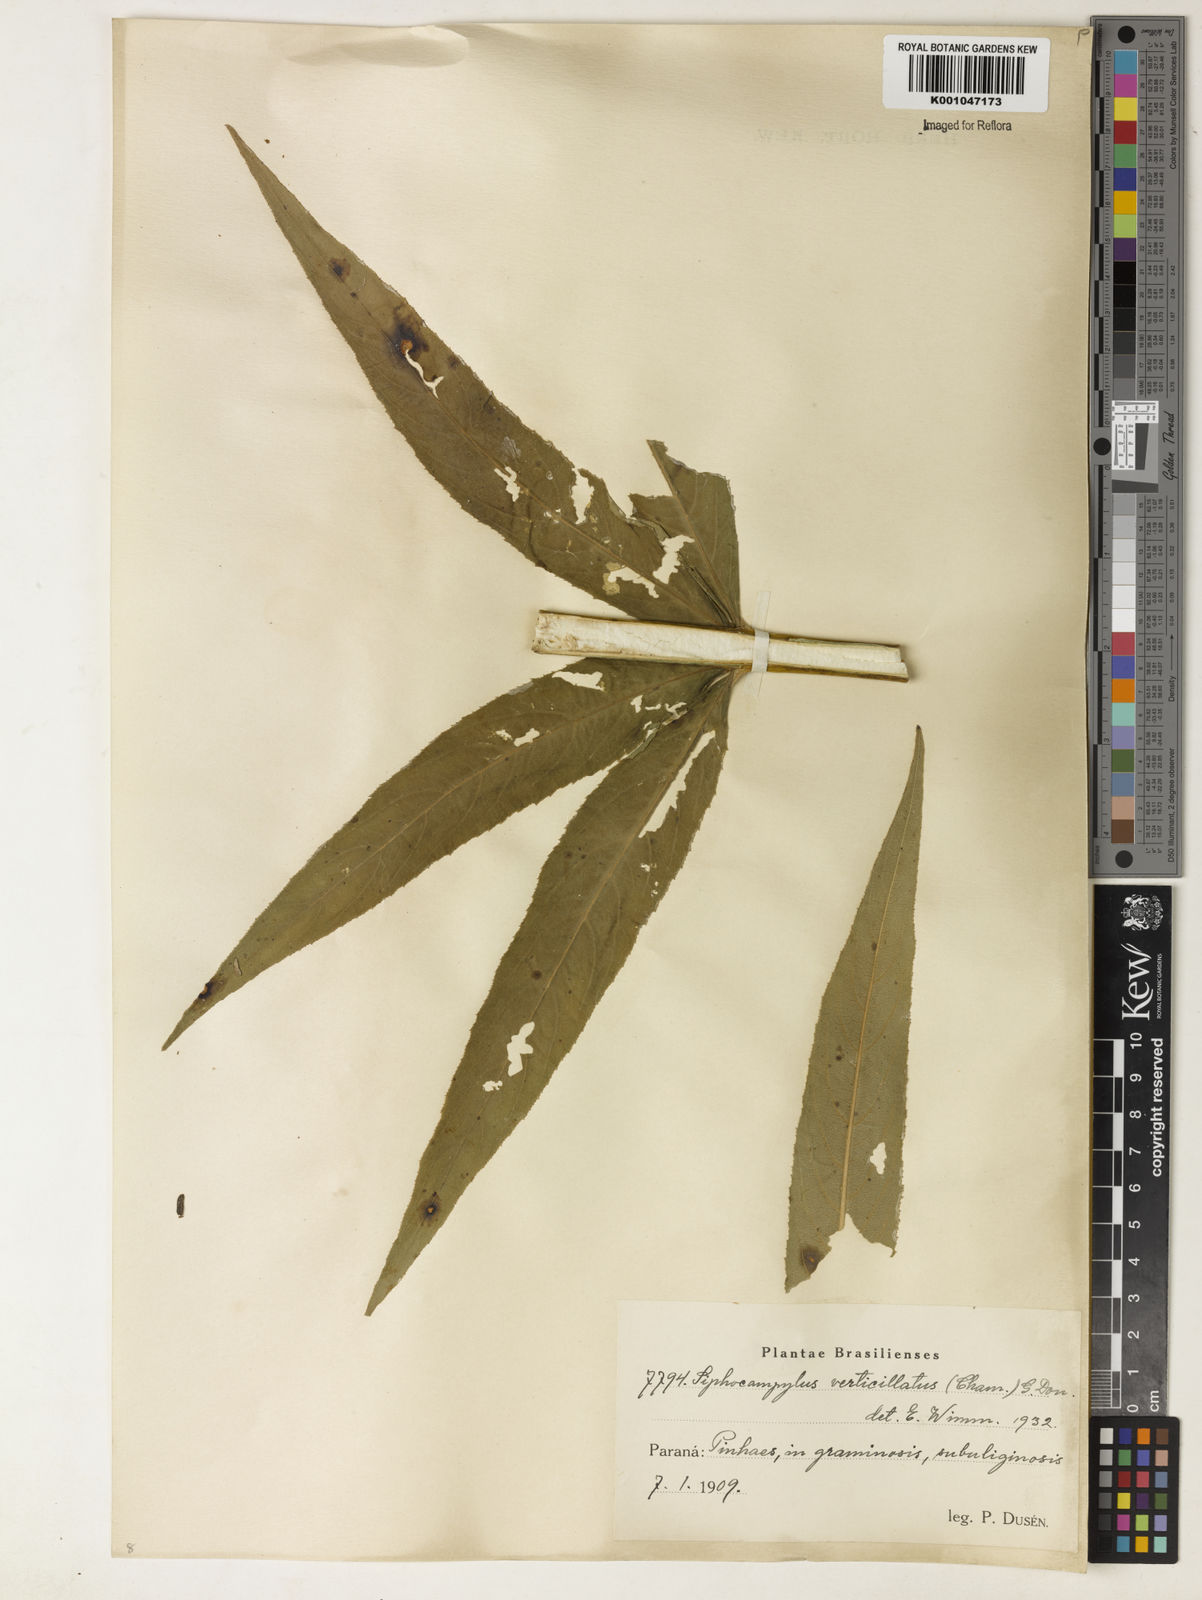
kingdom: Plantae
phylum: Tracheophyta
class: Magnoliopsida
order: Asterales
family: Campanulaceae
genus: Siphocampylus
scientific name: Siphocampylus verticillatus
